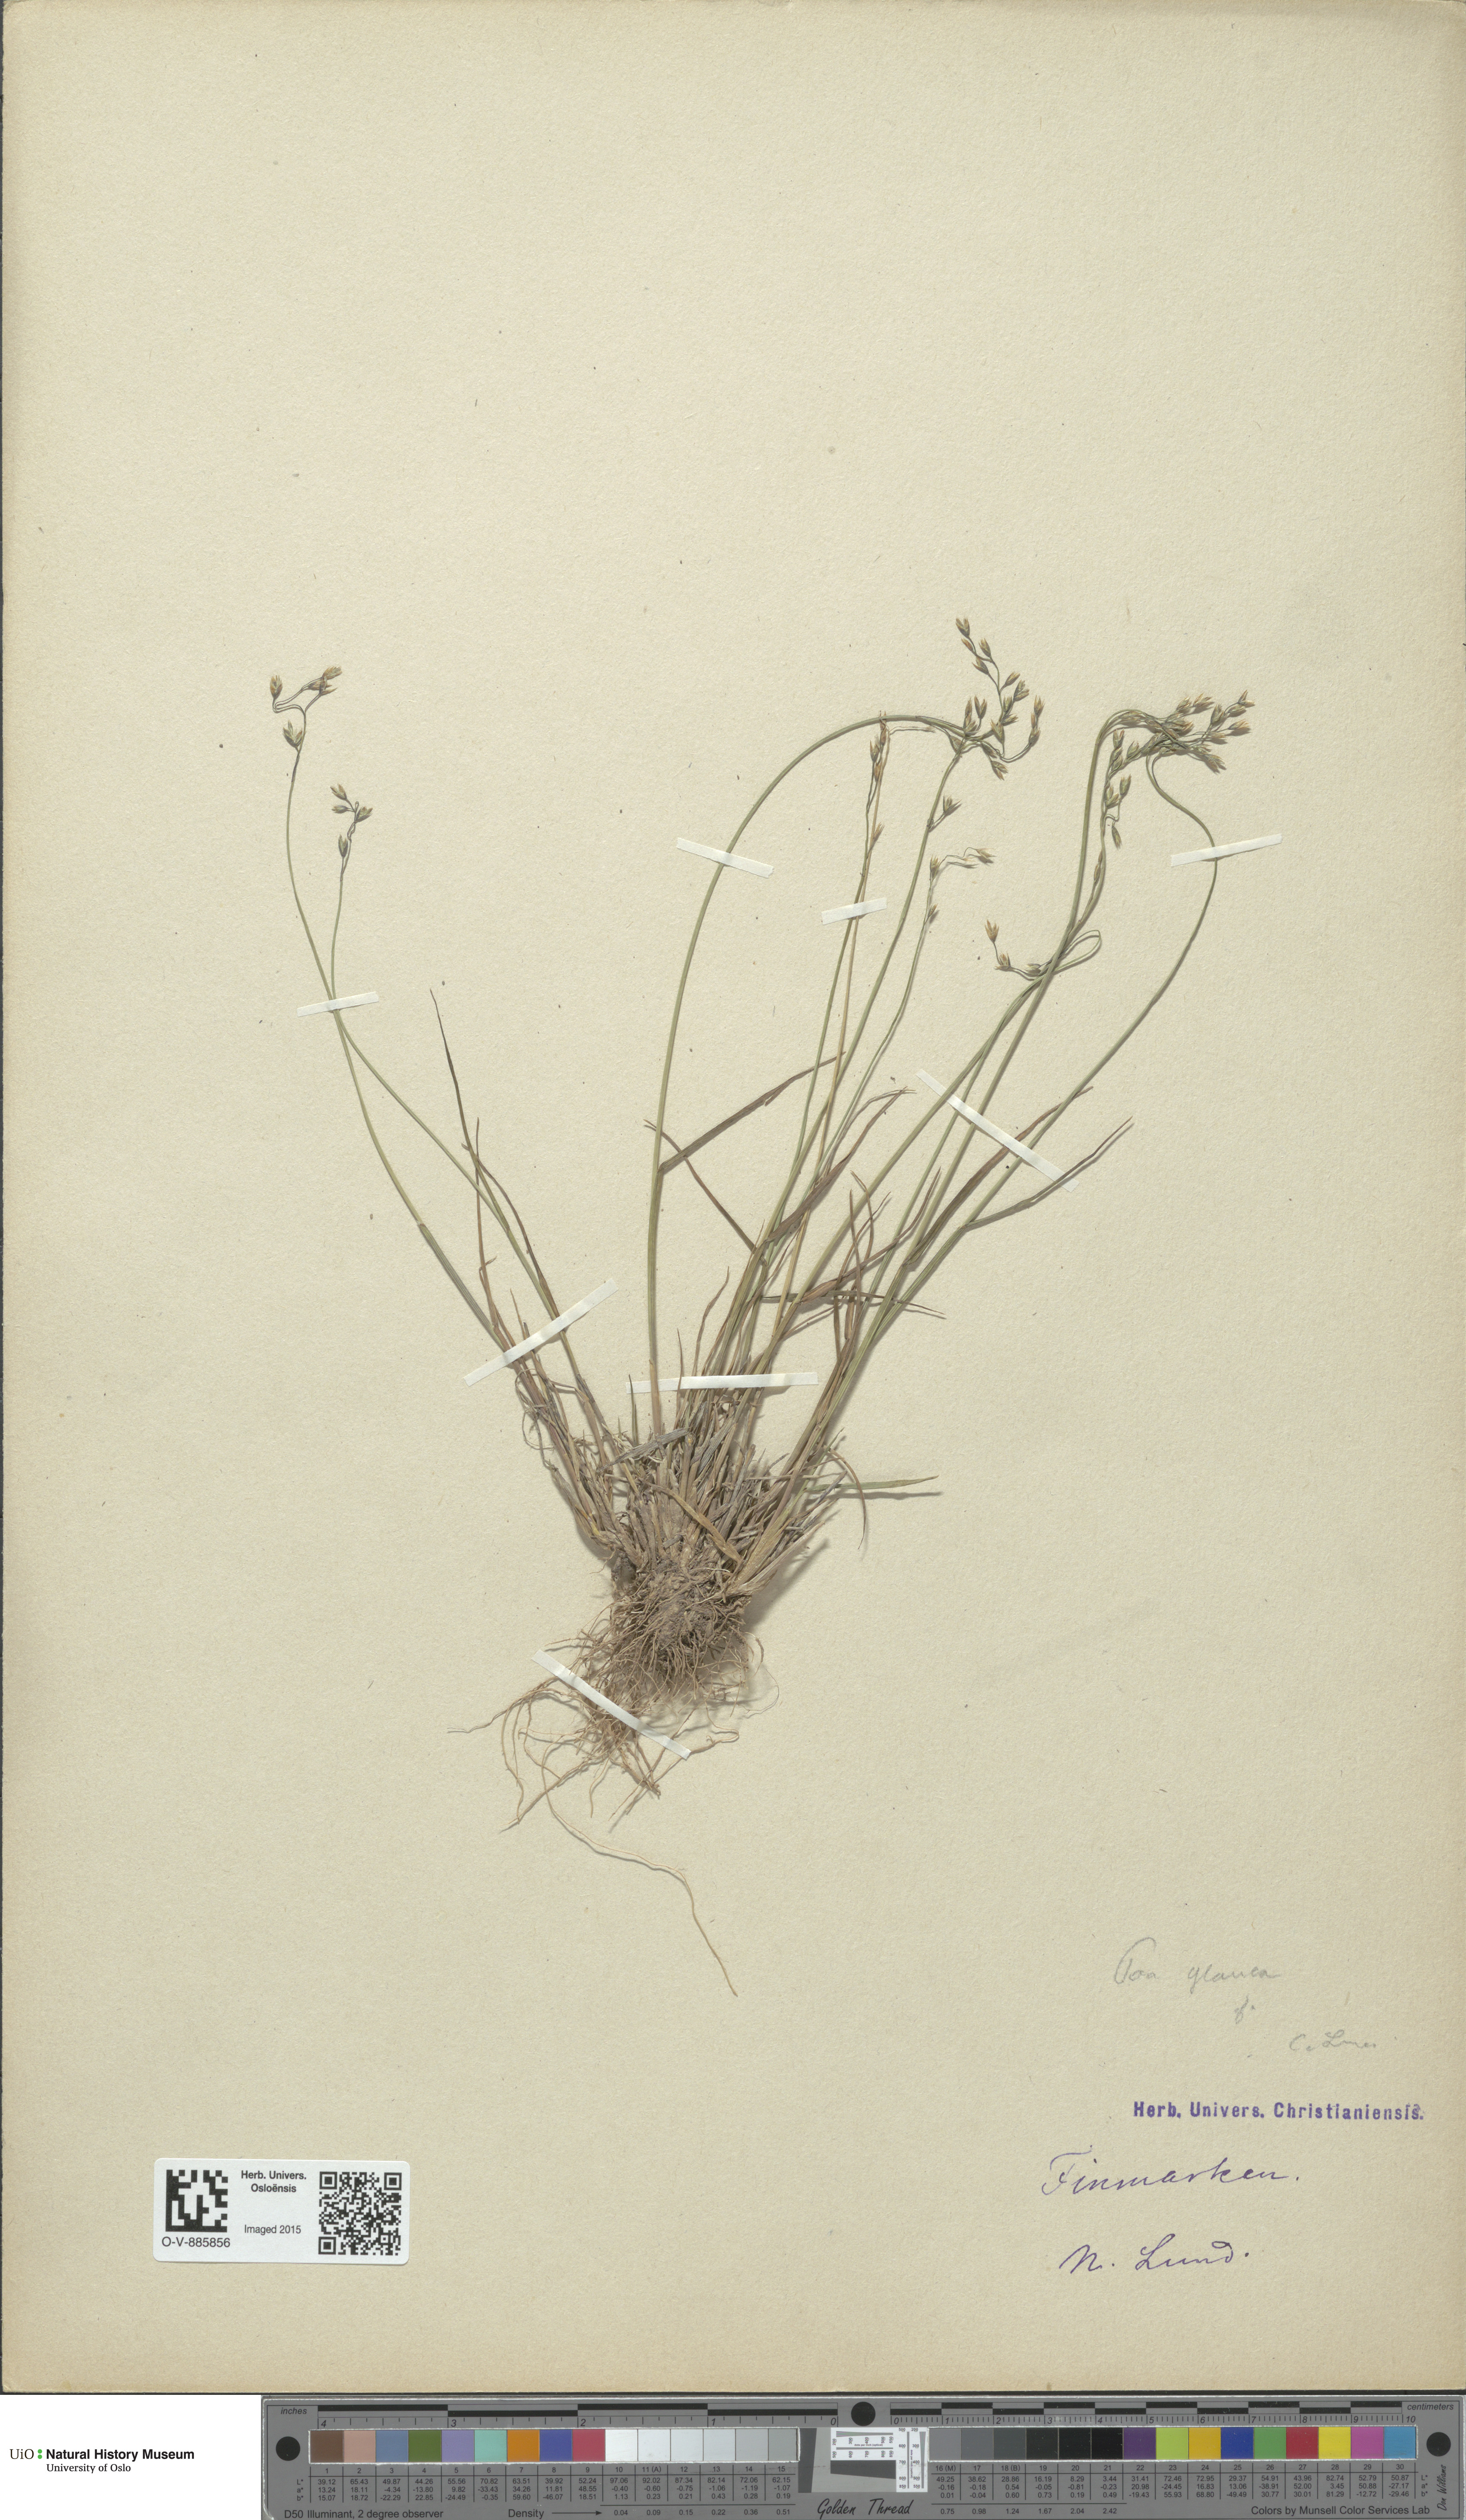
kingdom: Plantae
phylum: Tracheophyta
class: Liliopsida
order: Poales
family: Poaceae
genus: Poa
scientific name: Poa glauca
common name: Glaucous bluegrass
